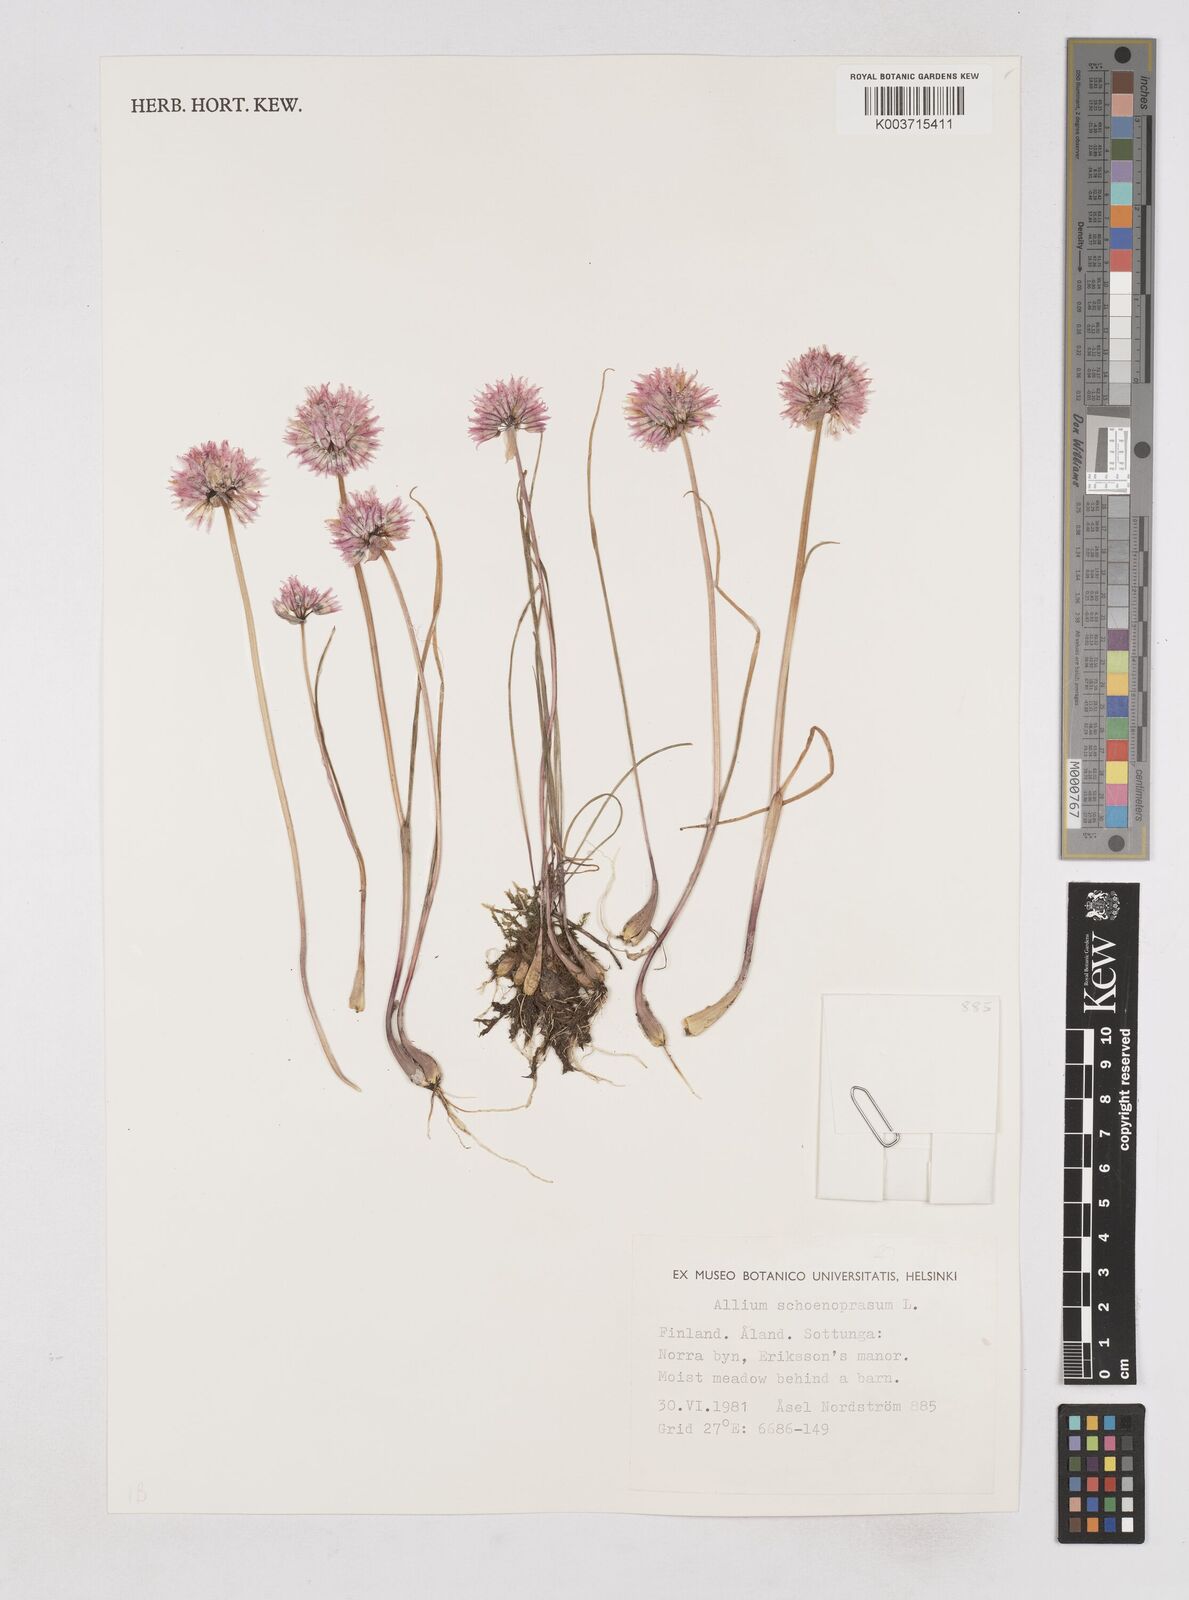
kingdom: Plantae
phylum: Tracheophyta
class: Liliopsida
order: Asparagales
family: Amaryllidaceae
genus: Allium
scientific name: Allium schoenoprasum
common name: Chives
